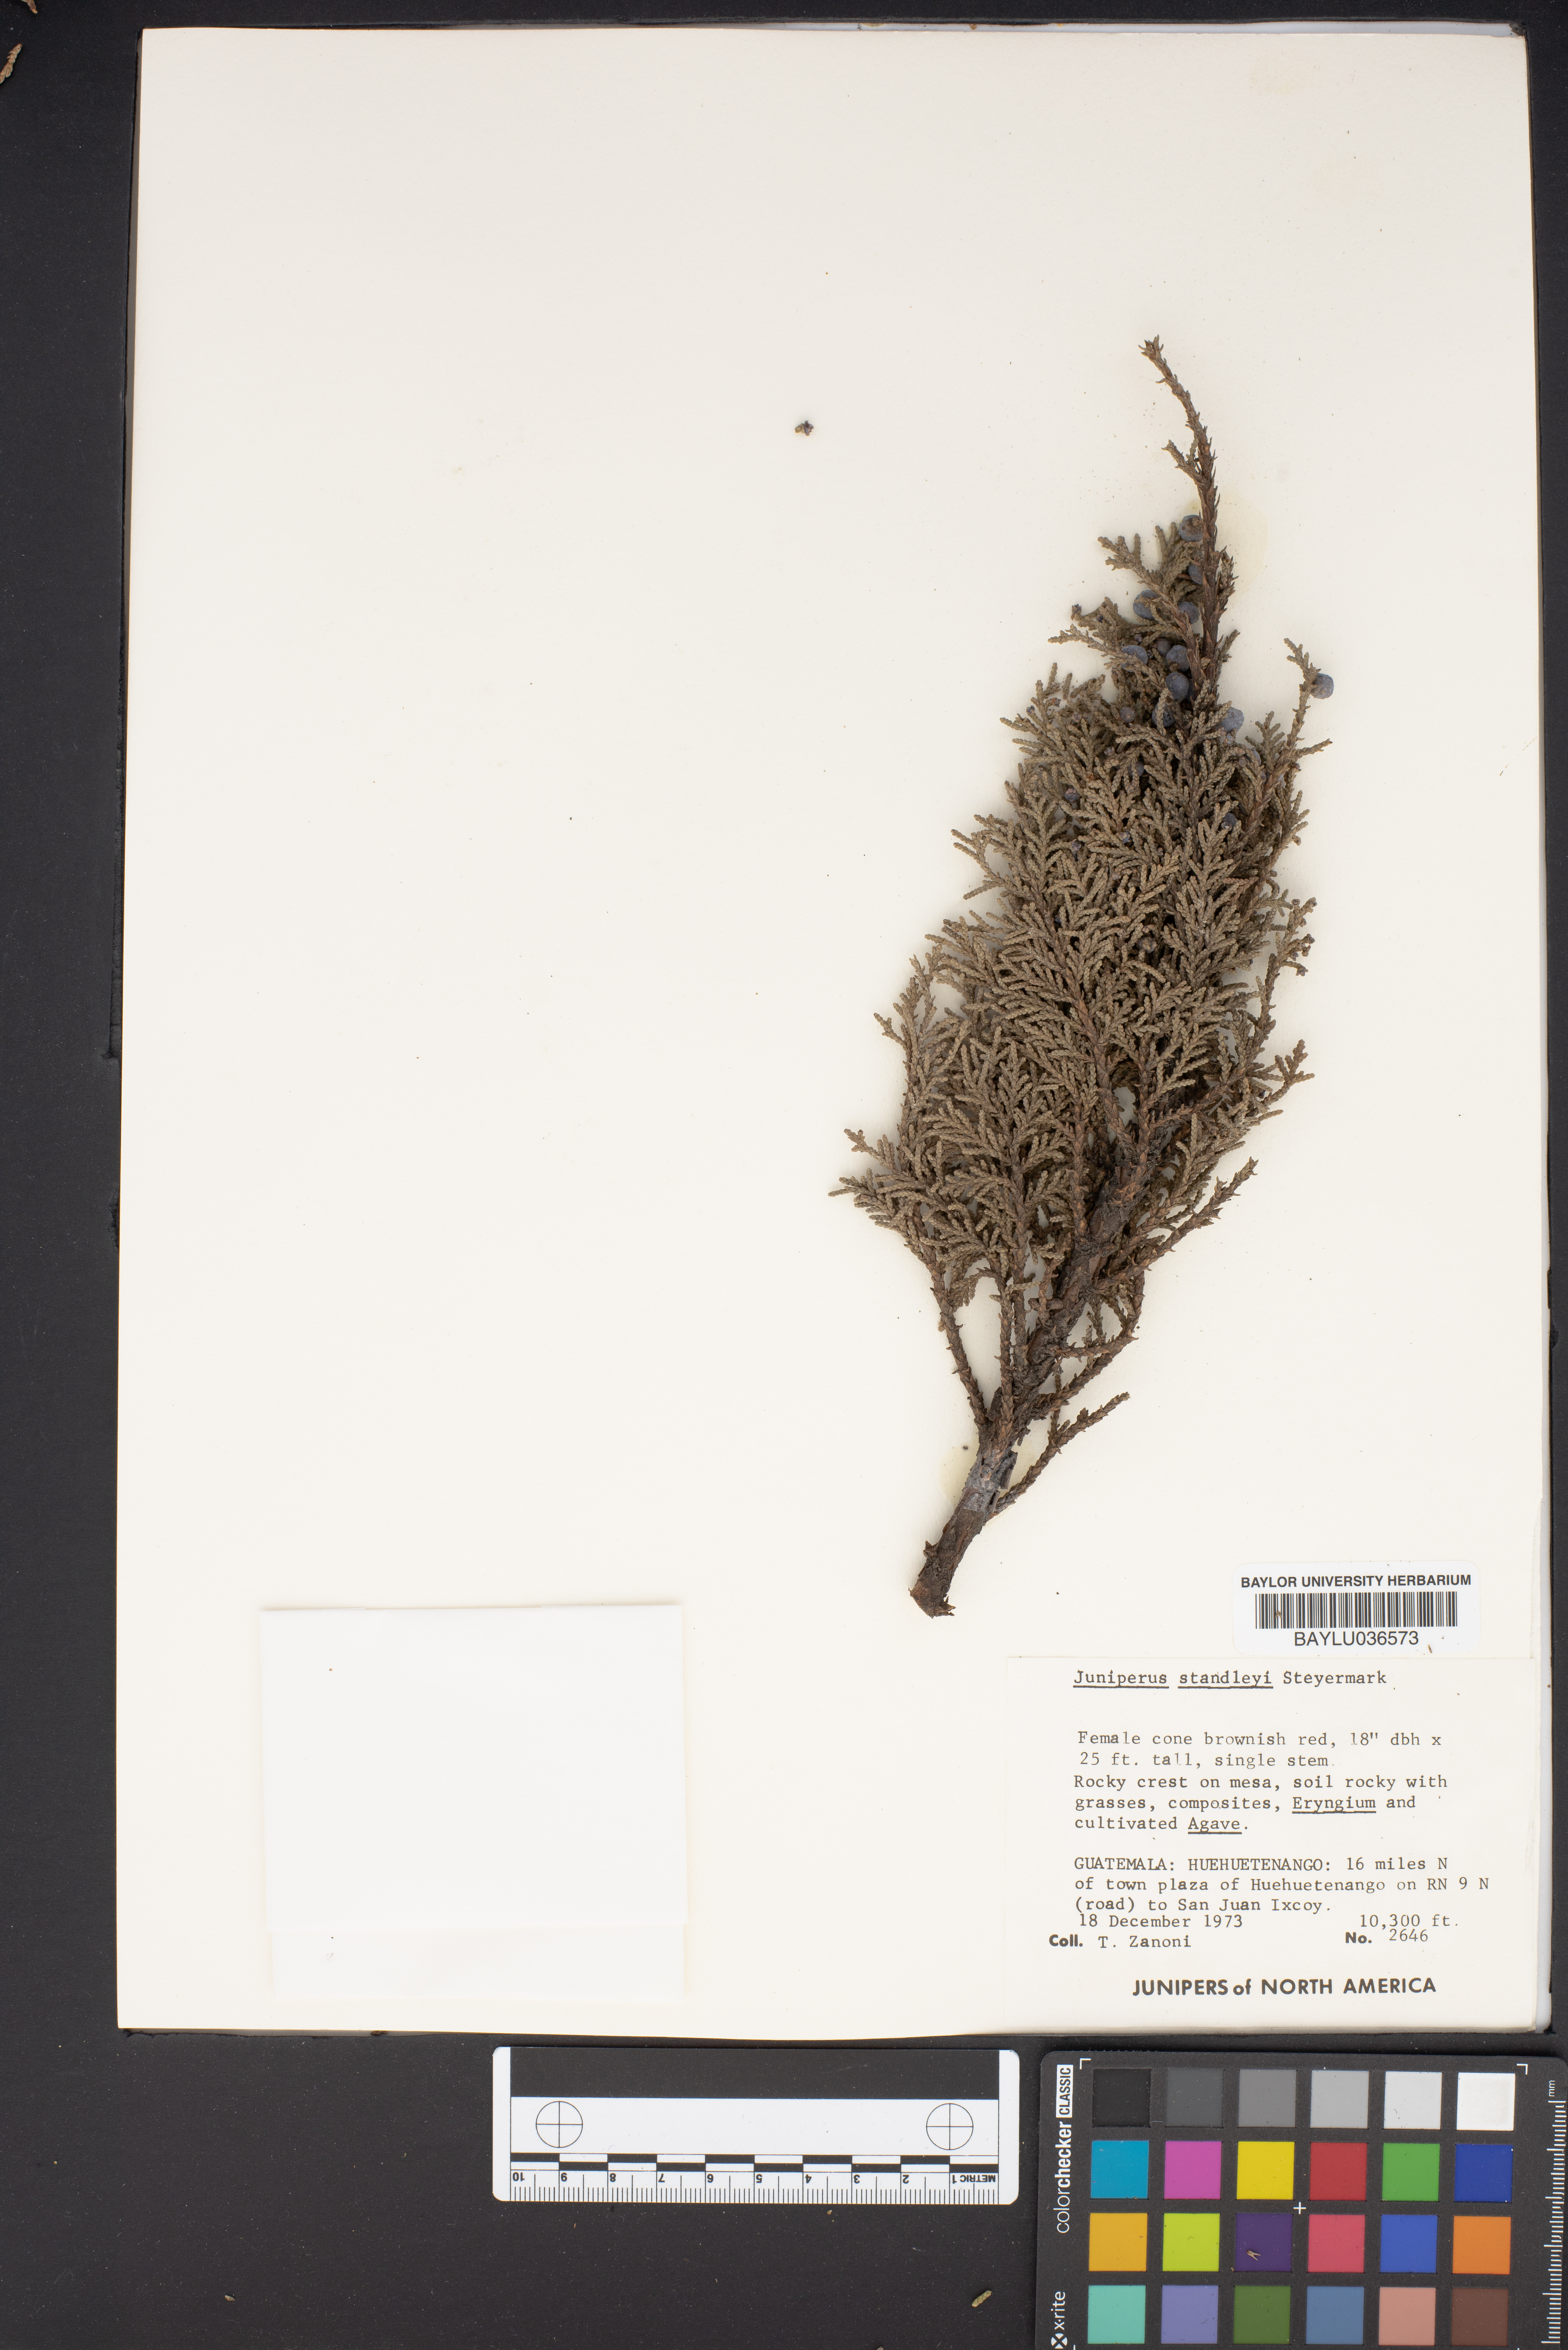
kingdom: Plantae
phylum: Tracheophyta
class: Pinopsida
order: Pinales
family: Cupressaceae
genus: Juniperus
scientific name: Juniperus standleyi
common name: Standley juniper
